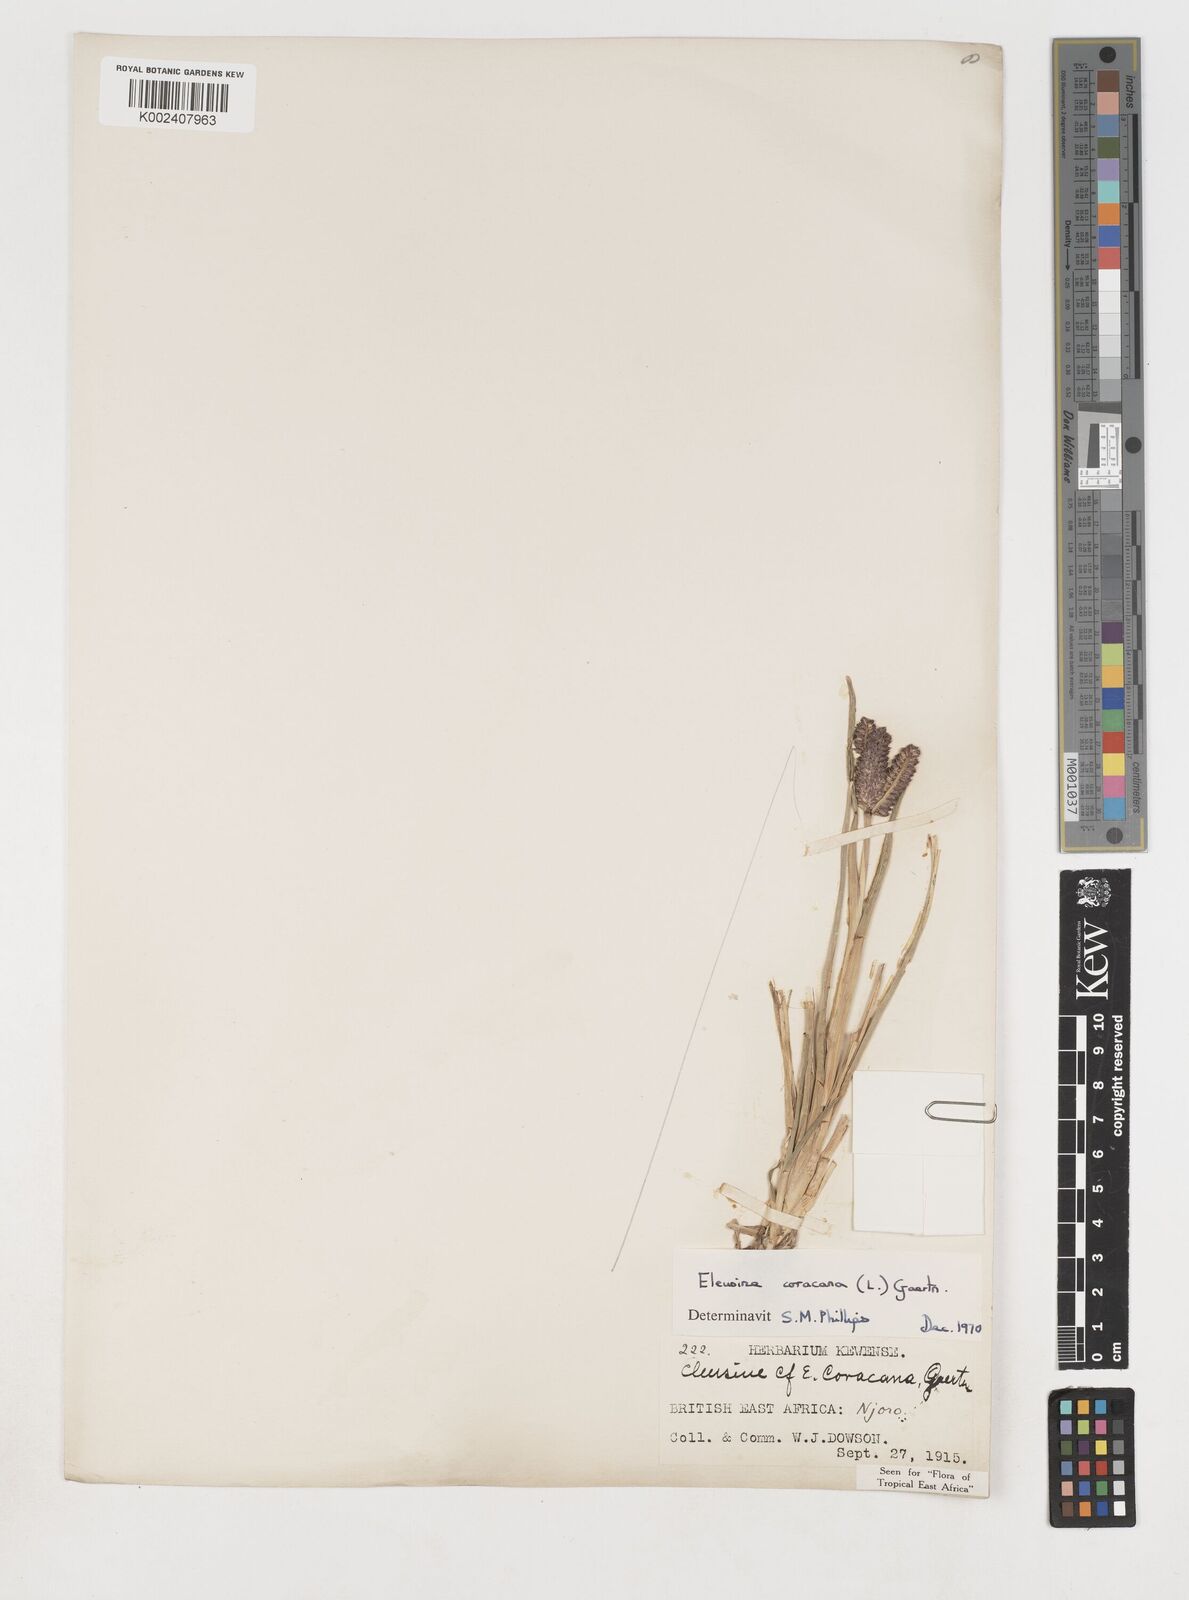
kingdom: Plantae
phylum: Tracheophyta
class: Liliopsida
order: Poales
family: Poaceae
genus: Eleusine
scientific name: Eleusine coracana
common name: Finger millet
